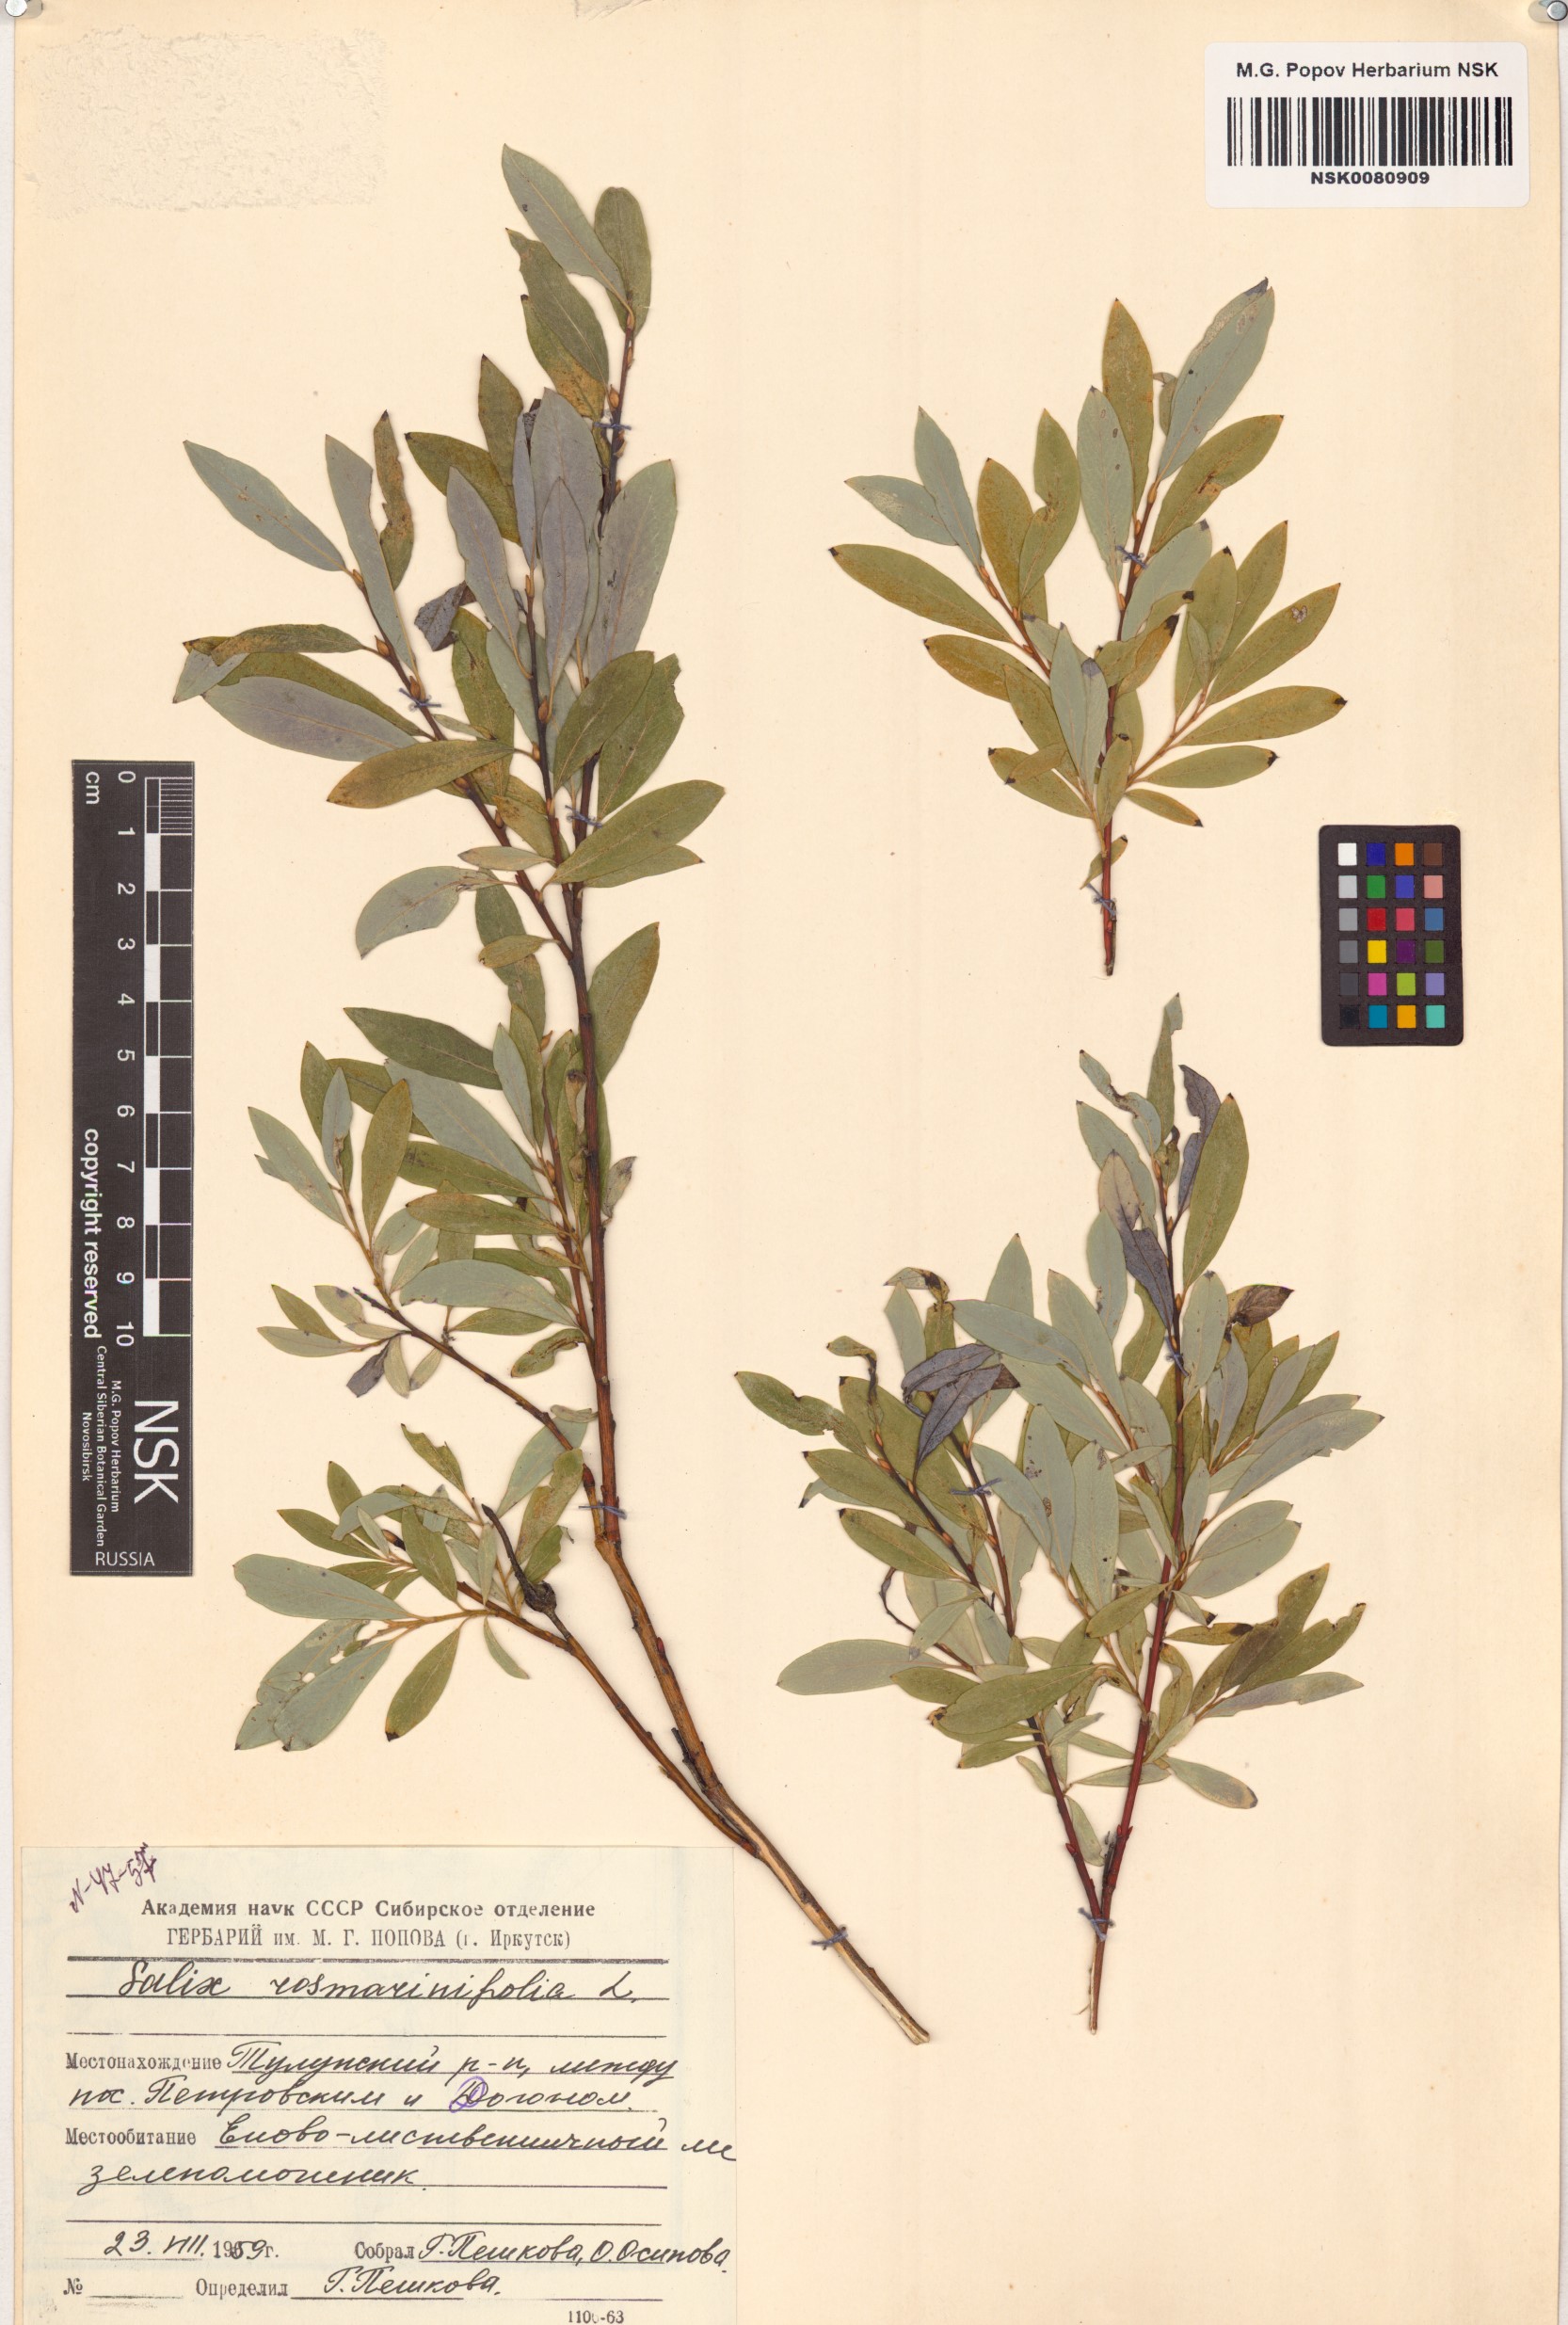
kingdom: Plantae
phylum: Tracheophyta
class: Magnoliopsida
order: Malpighiales
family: Salicaceae
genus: Salix
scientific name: Salix rosmarinifolia
